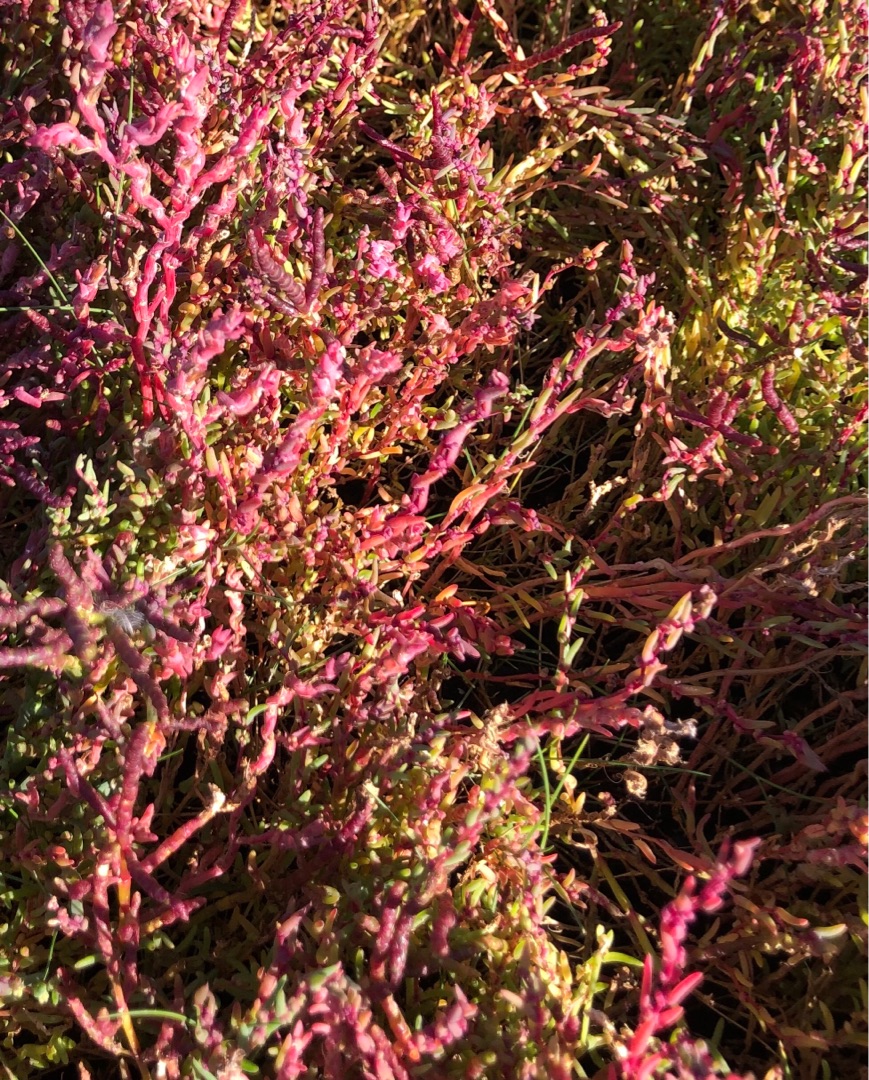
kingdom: Plantae
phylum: Tracheophyta
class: Magnoliopsida
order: Caryophyllales
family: Amaranthaceae
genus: Spirobassia
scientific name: Spirobassia hirsuta
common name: Tangurt
